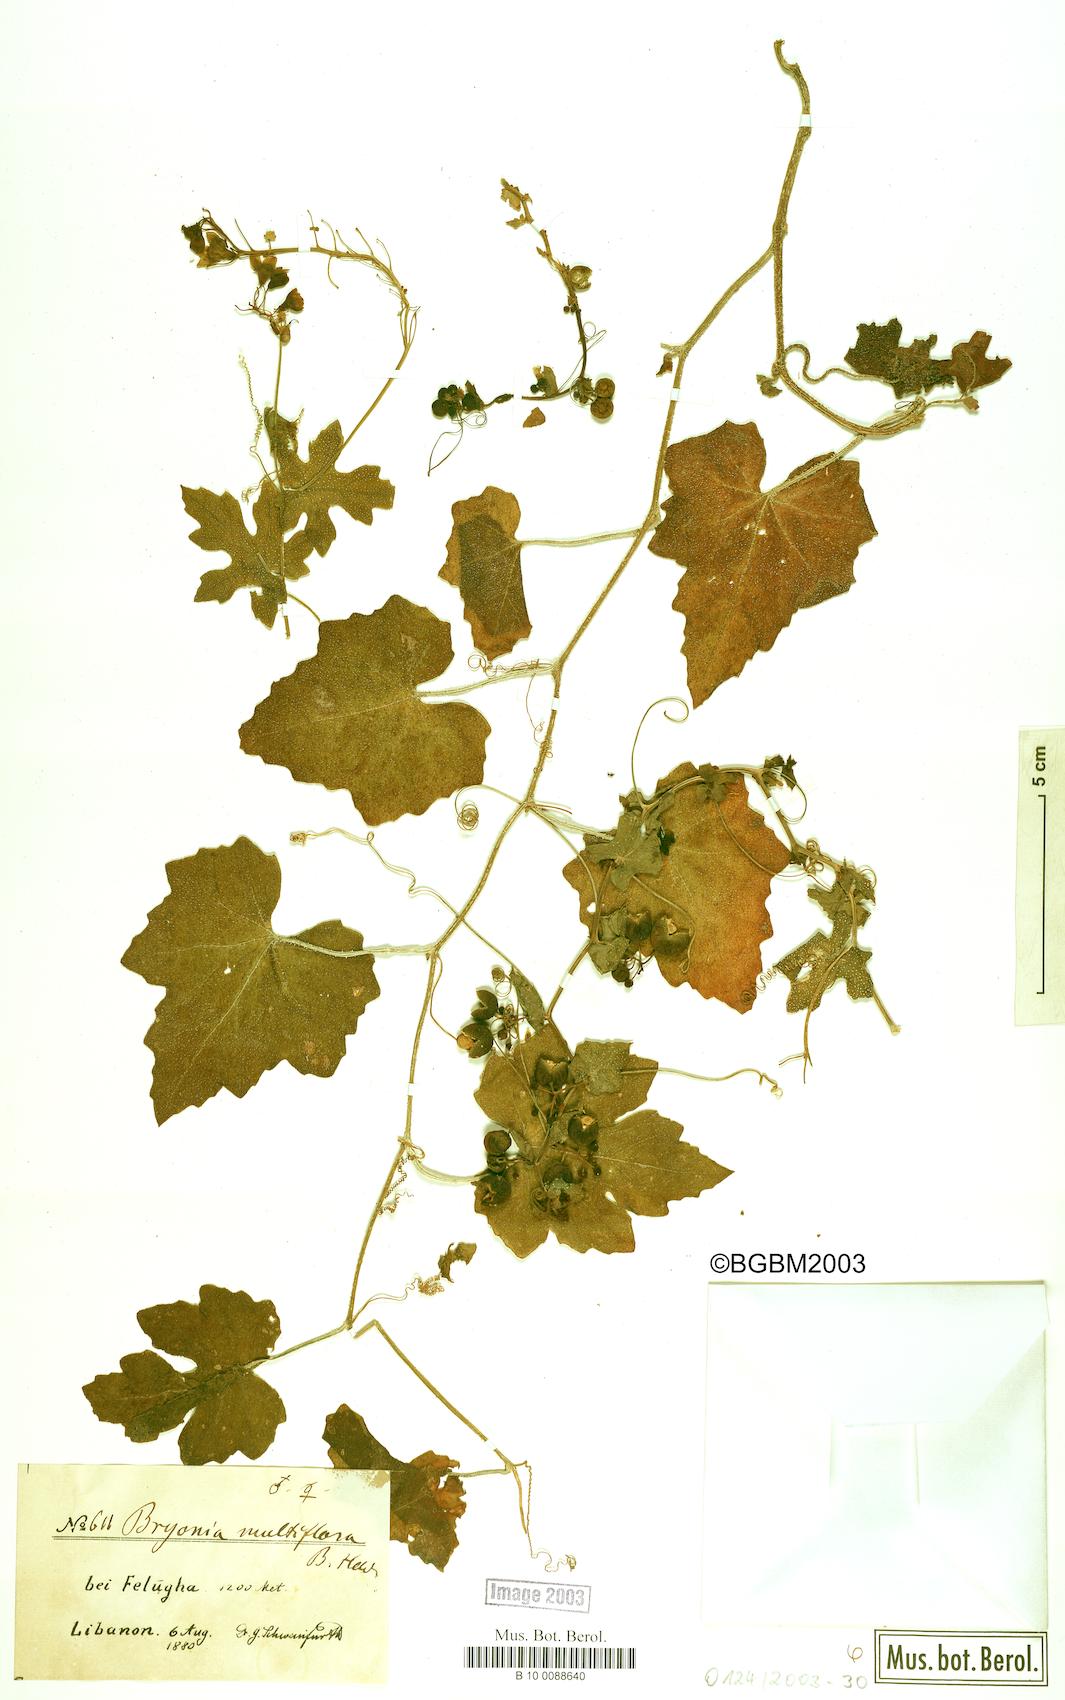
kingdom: Plantae
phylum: Tracheophyta
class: Magnoliopsida
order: Cucurbitales
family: Cucurbitaceae
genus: Bryonia
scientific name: Bryonia multiflora
